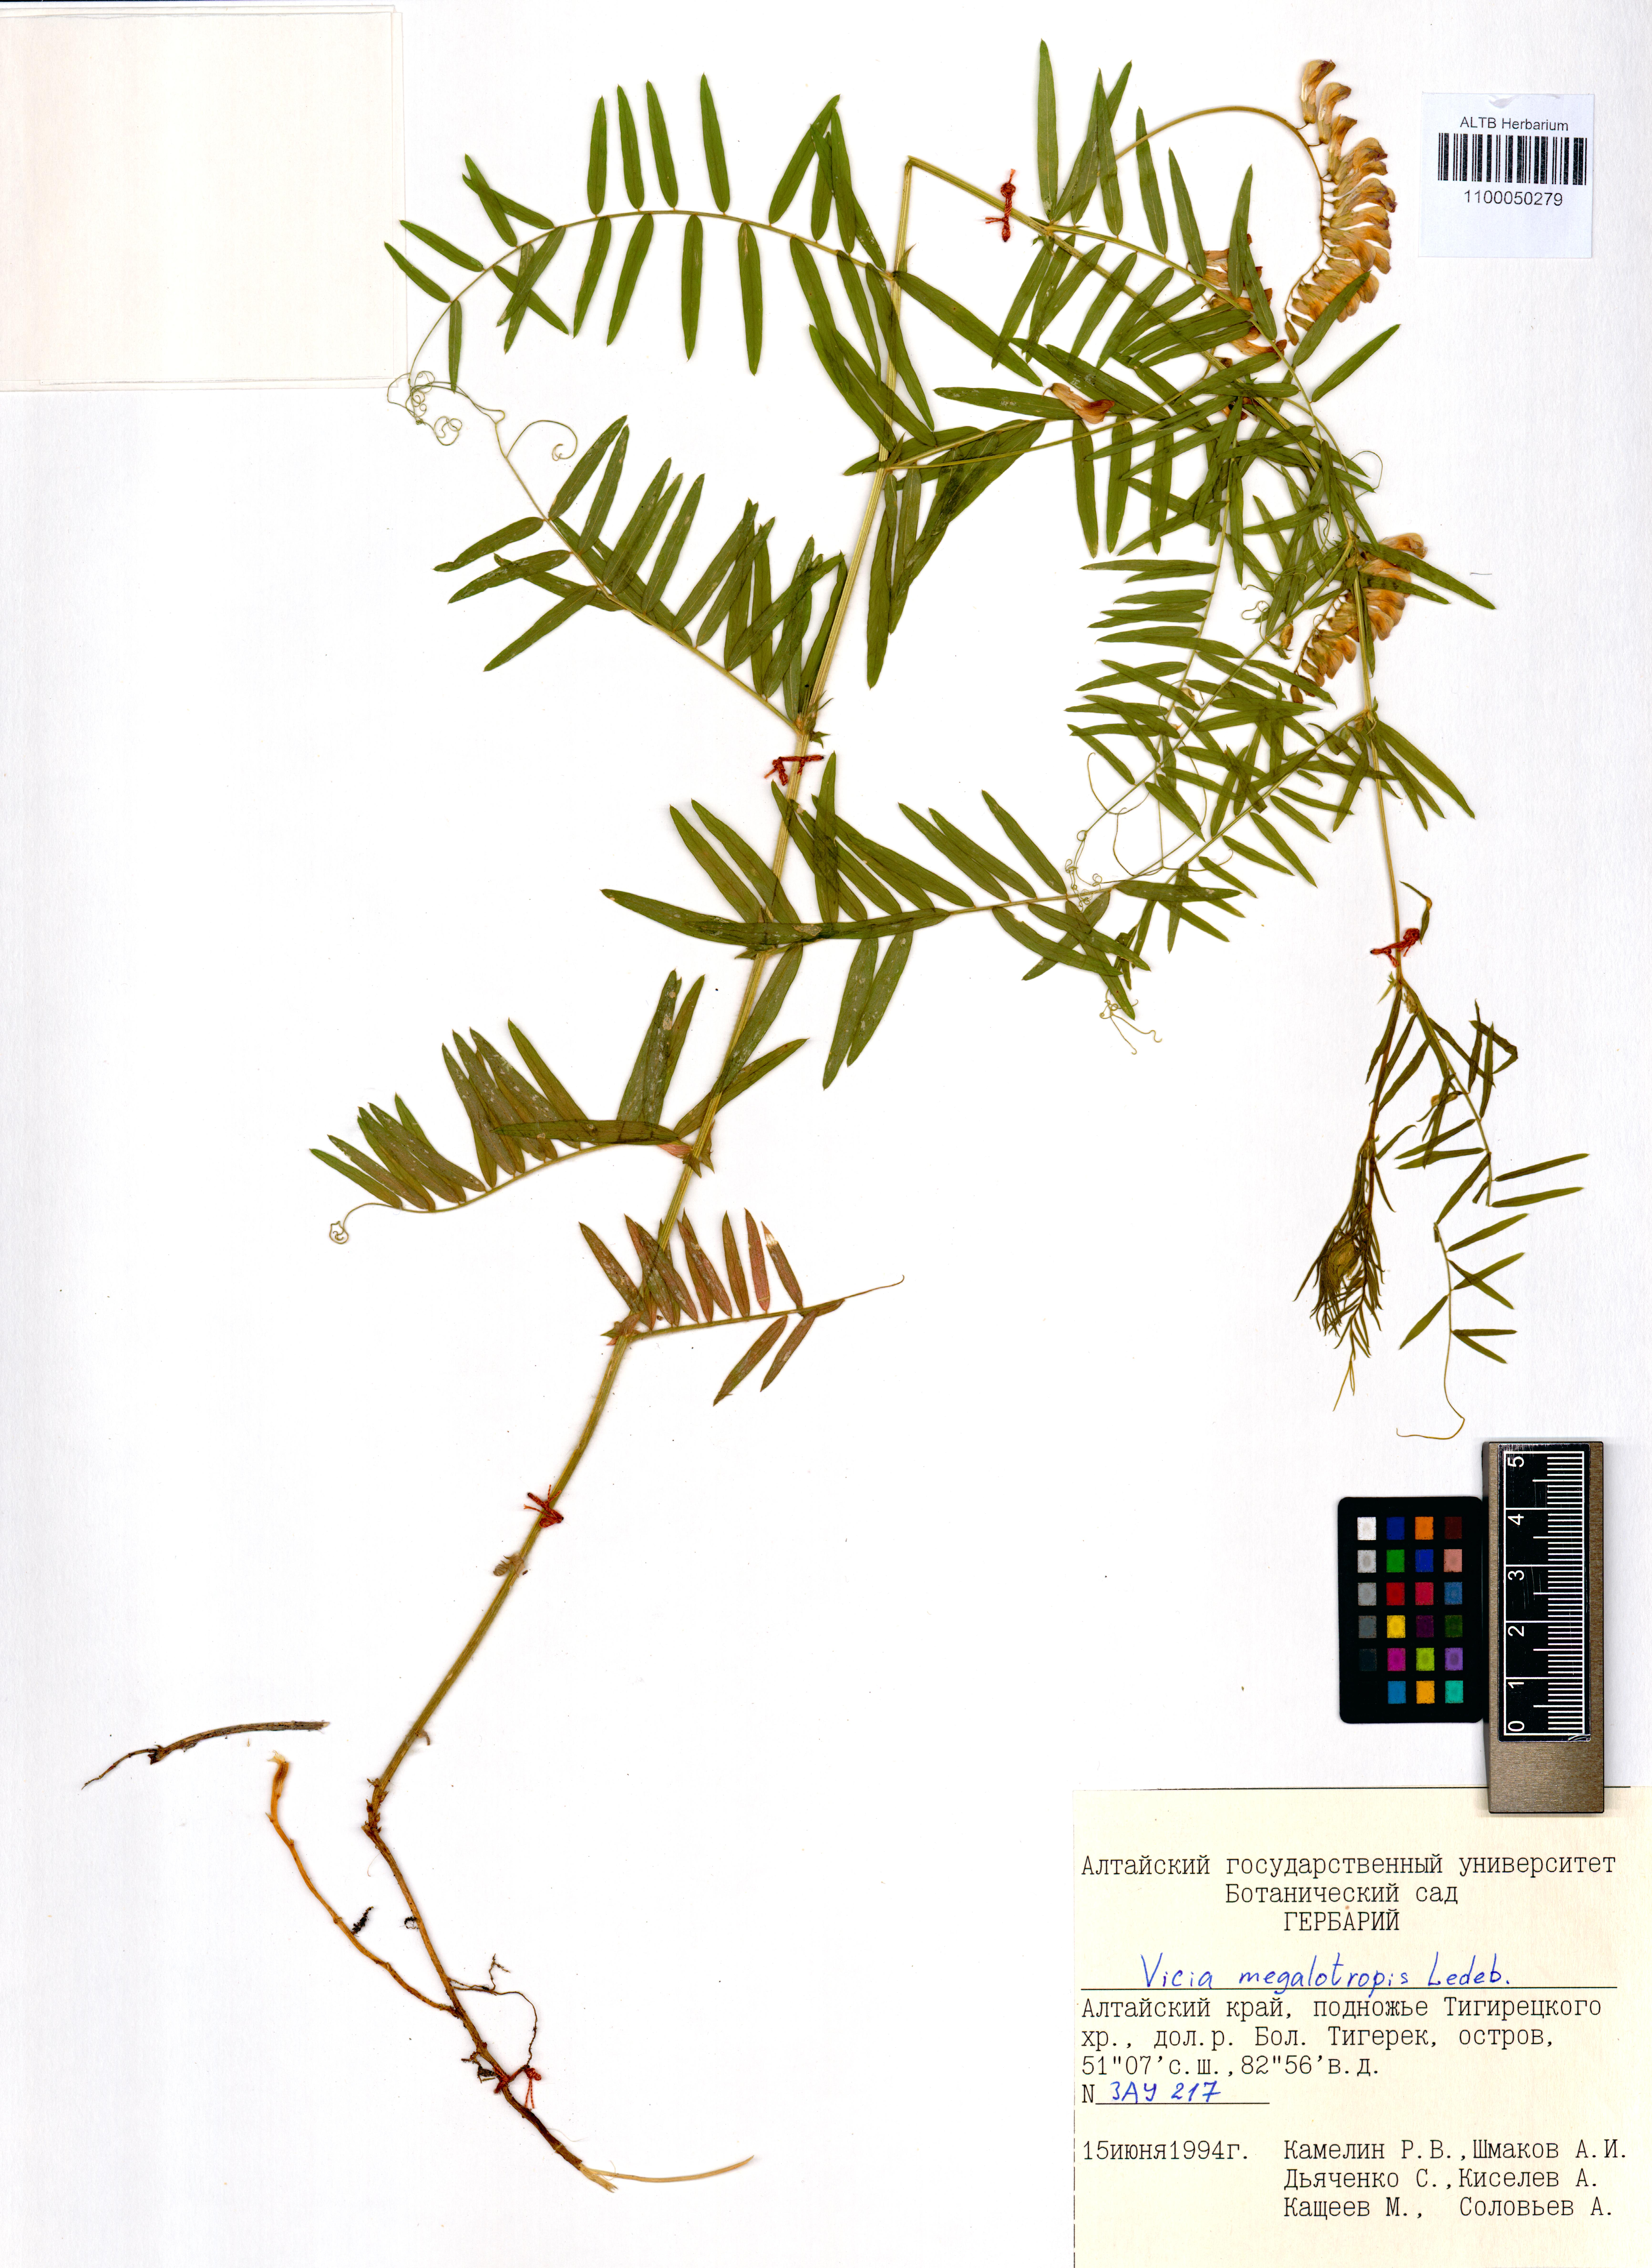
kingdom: Plantae
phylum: Tracheophyta
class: Magnoliopsida
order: Fabales
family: Fabaceae
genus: Vicia
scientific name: Vicia megalotropis
